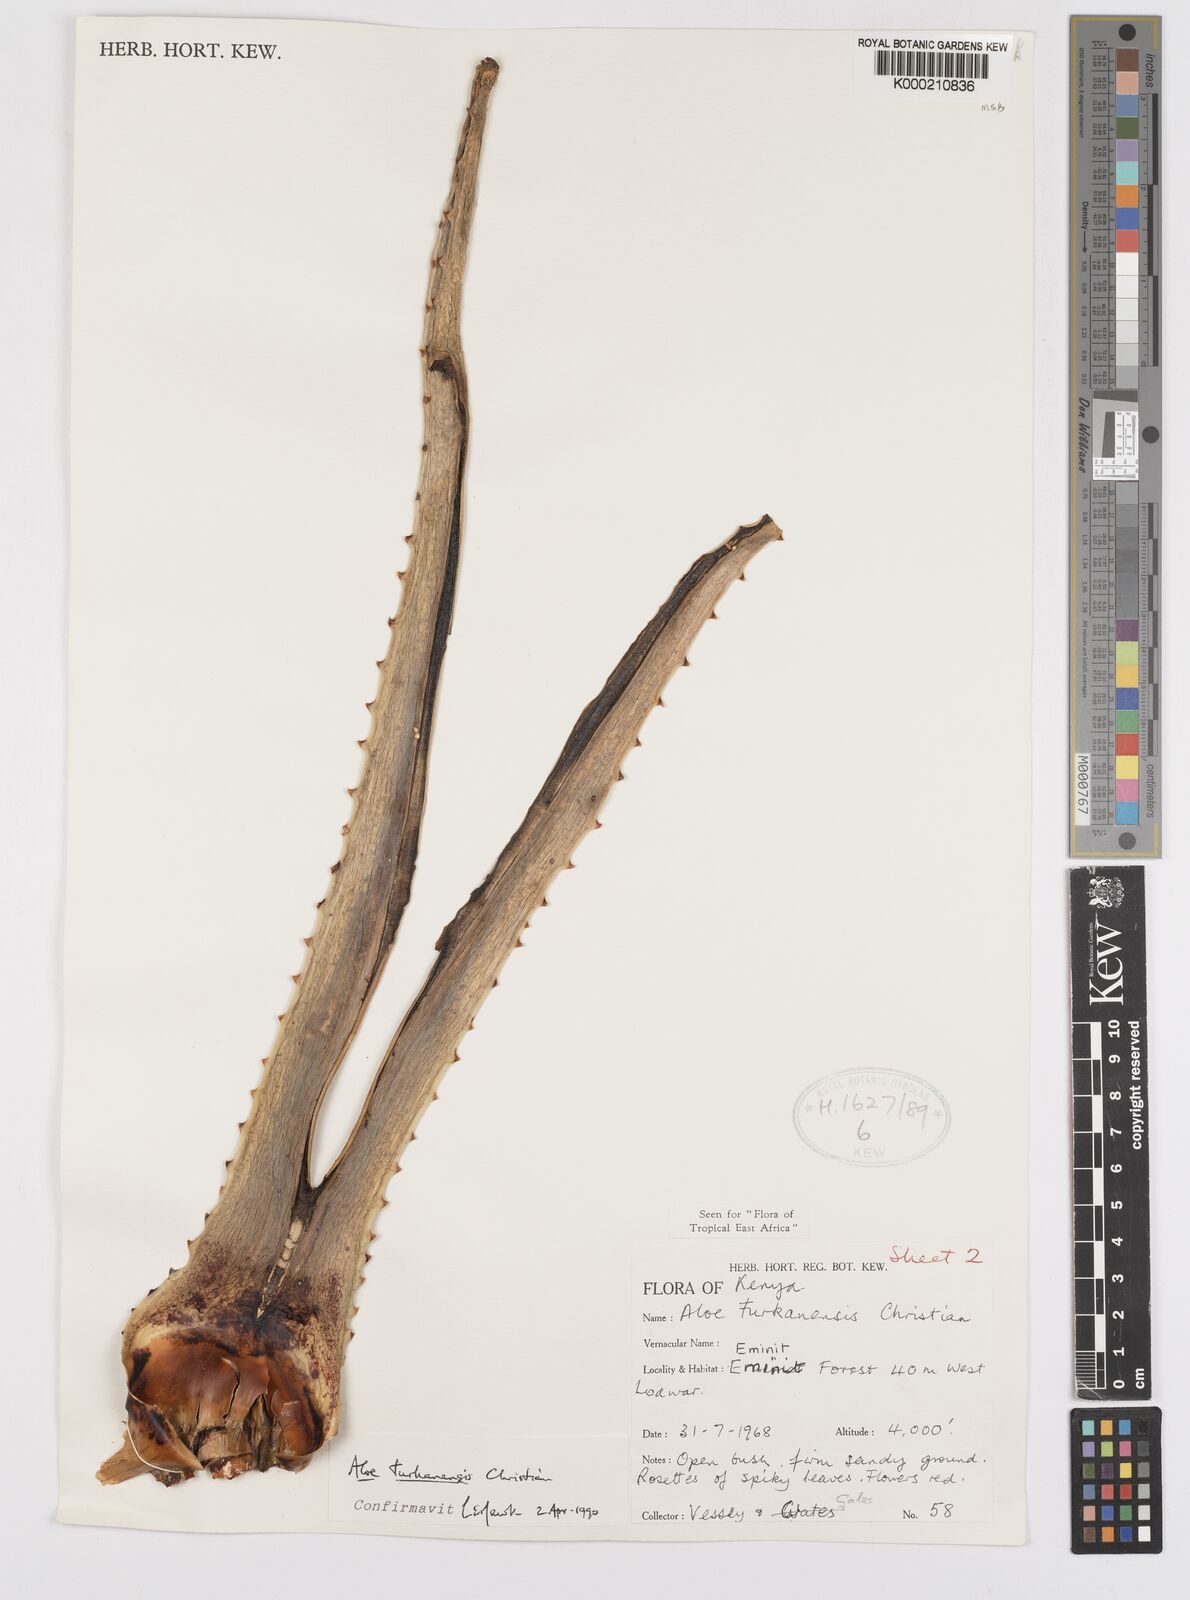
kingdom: Plantae
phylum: Tracheophyta
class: Liliopsida
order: Asparagales
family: Asphodelaceae
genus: Aloe
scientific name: Aloe turkanensis
